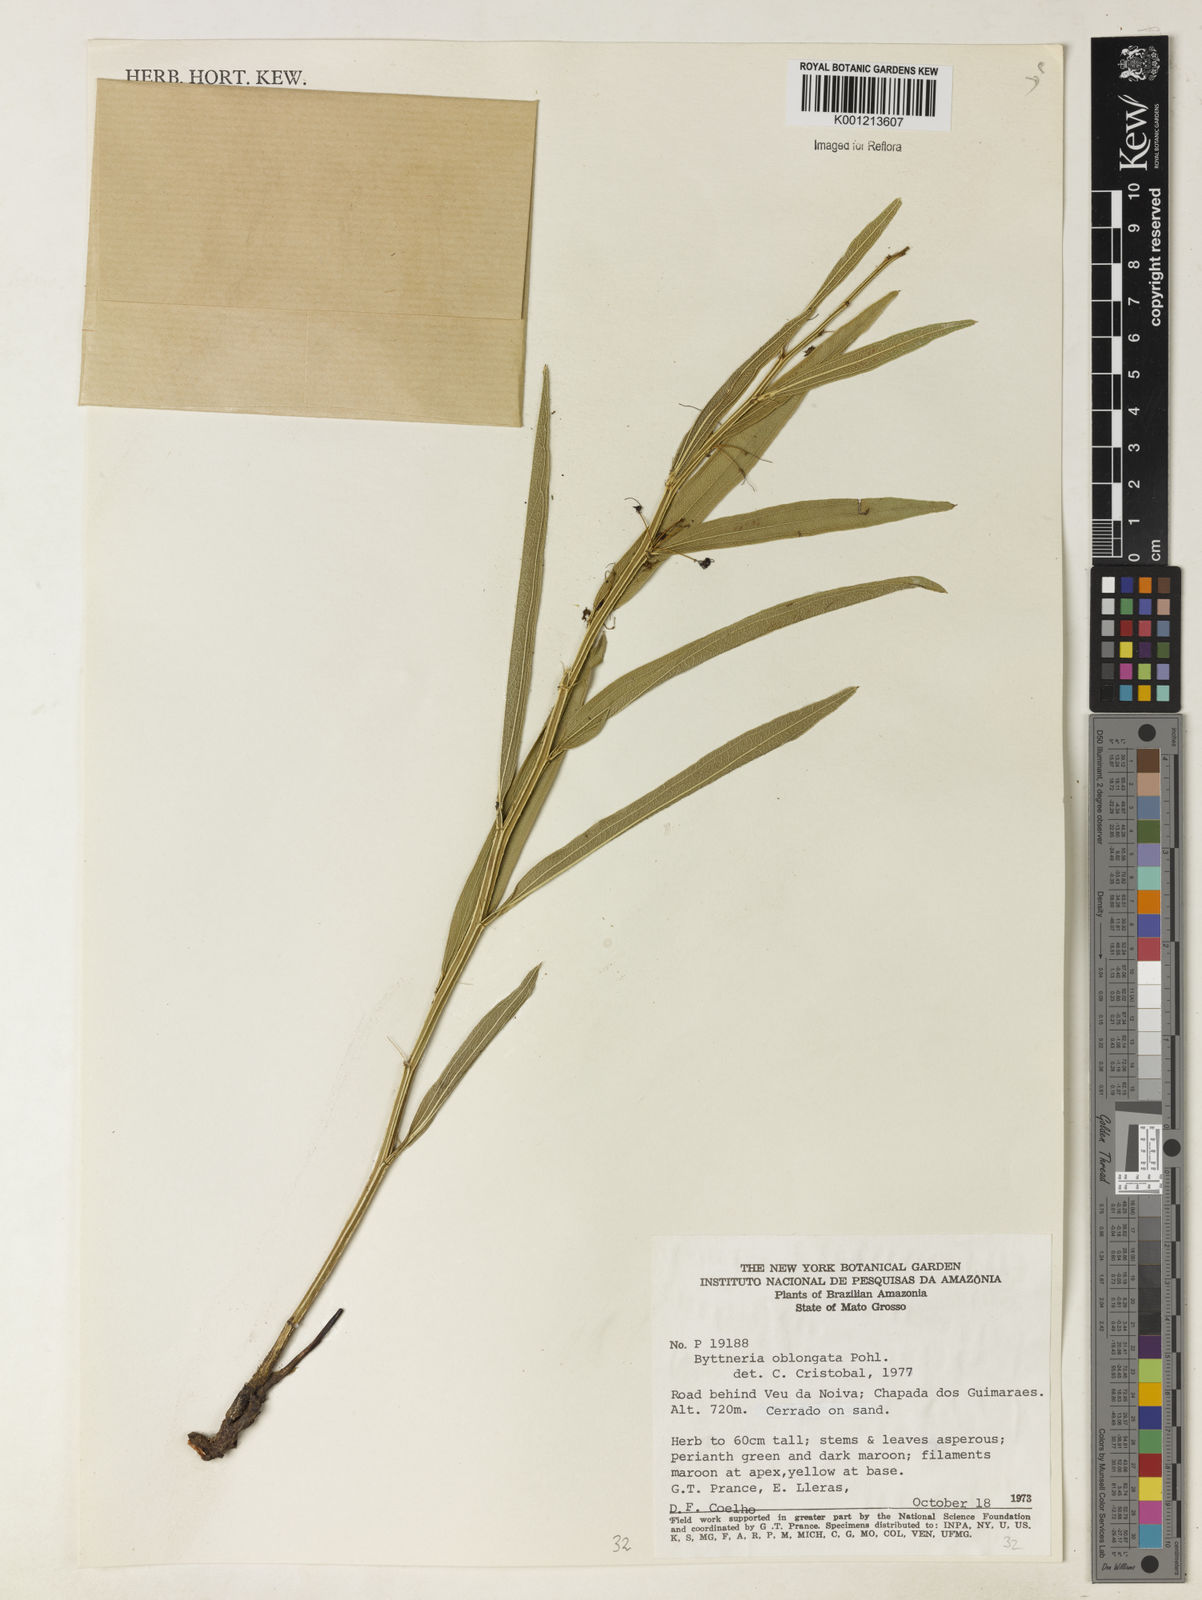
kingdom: Plantae
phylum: Tracheophyta
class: Magnoliopsida
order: Malvales
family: Malvaceae
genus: Byttneria
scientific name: Byttneria oblongata
